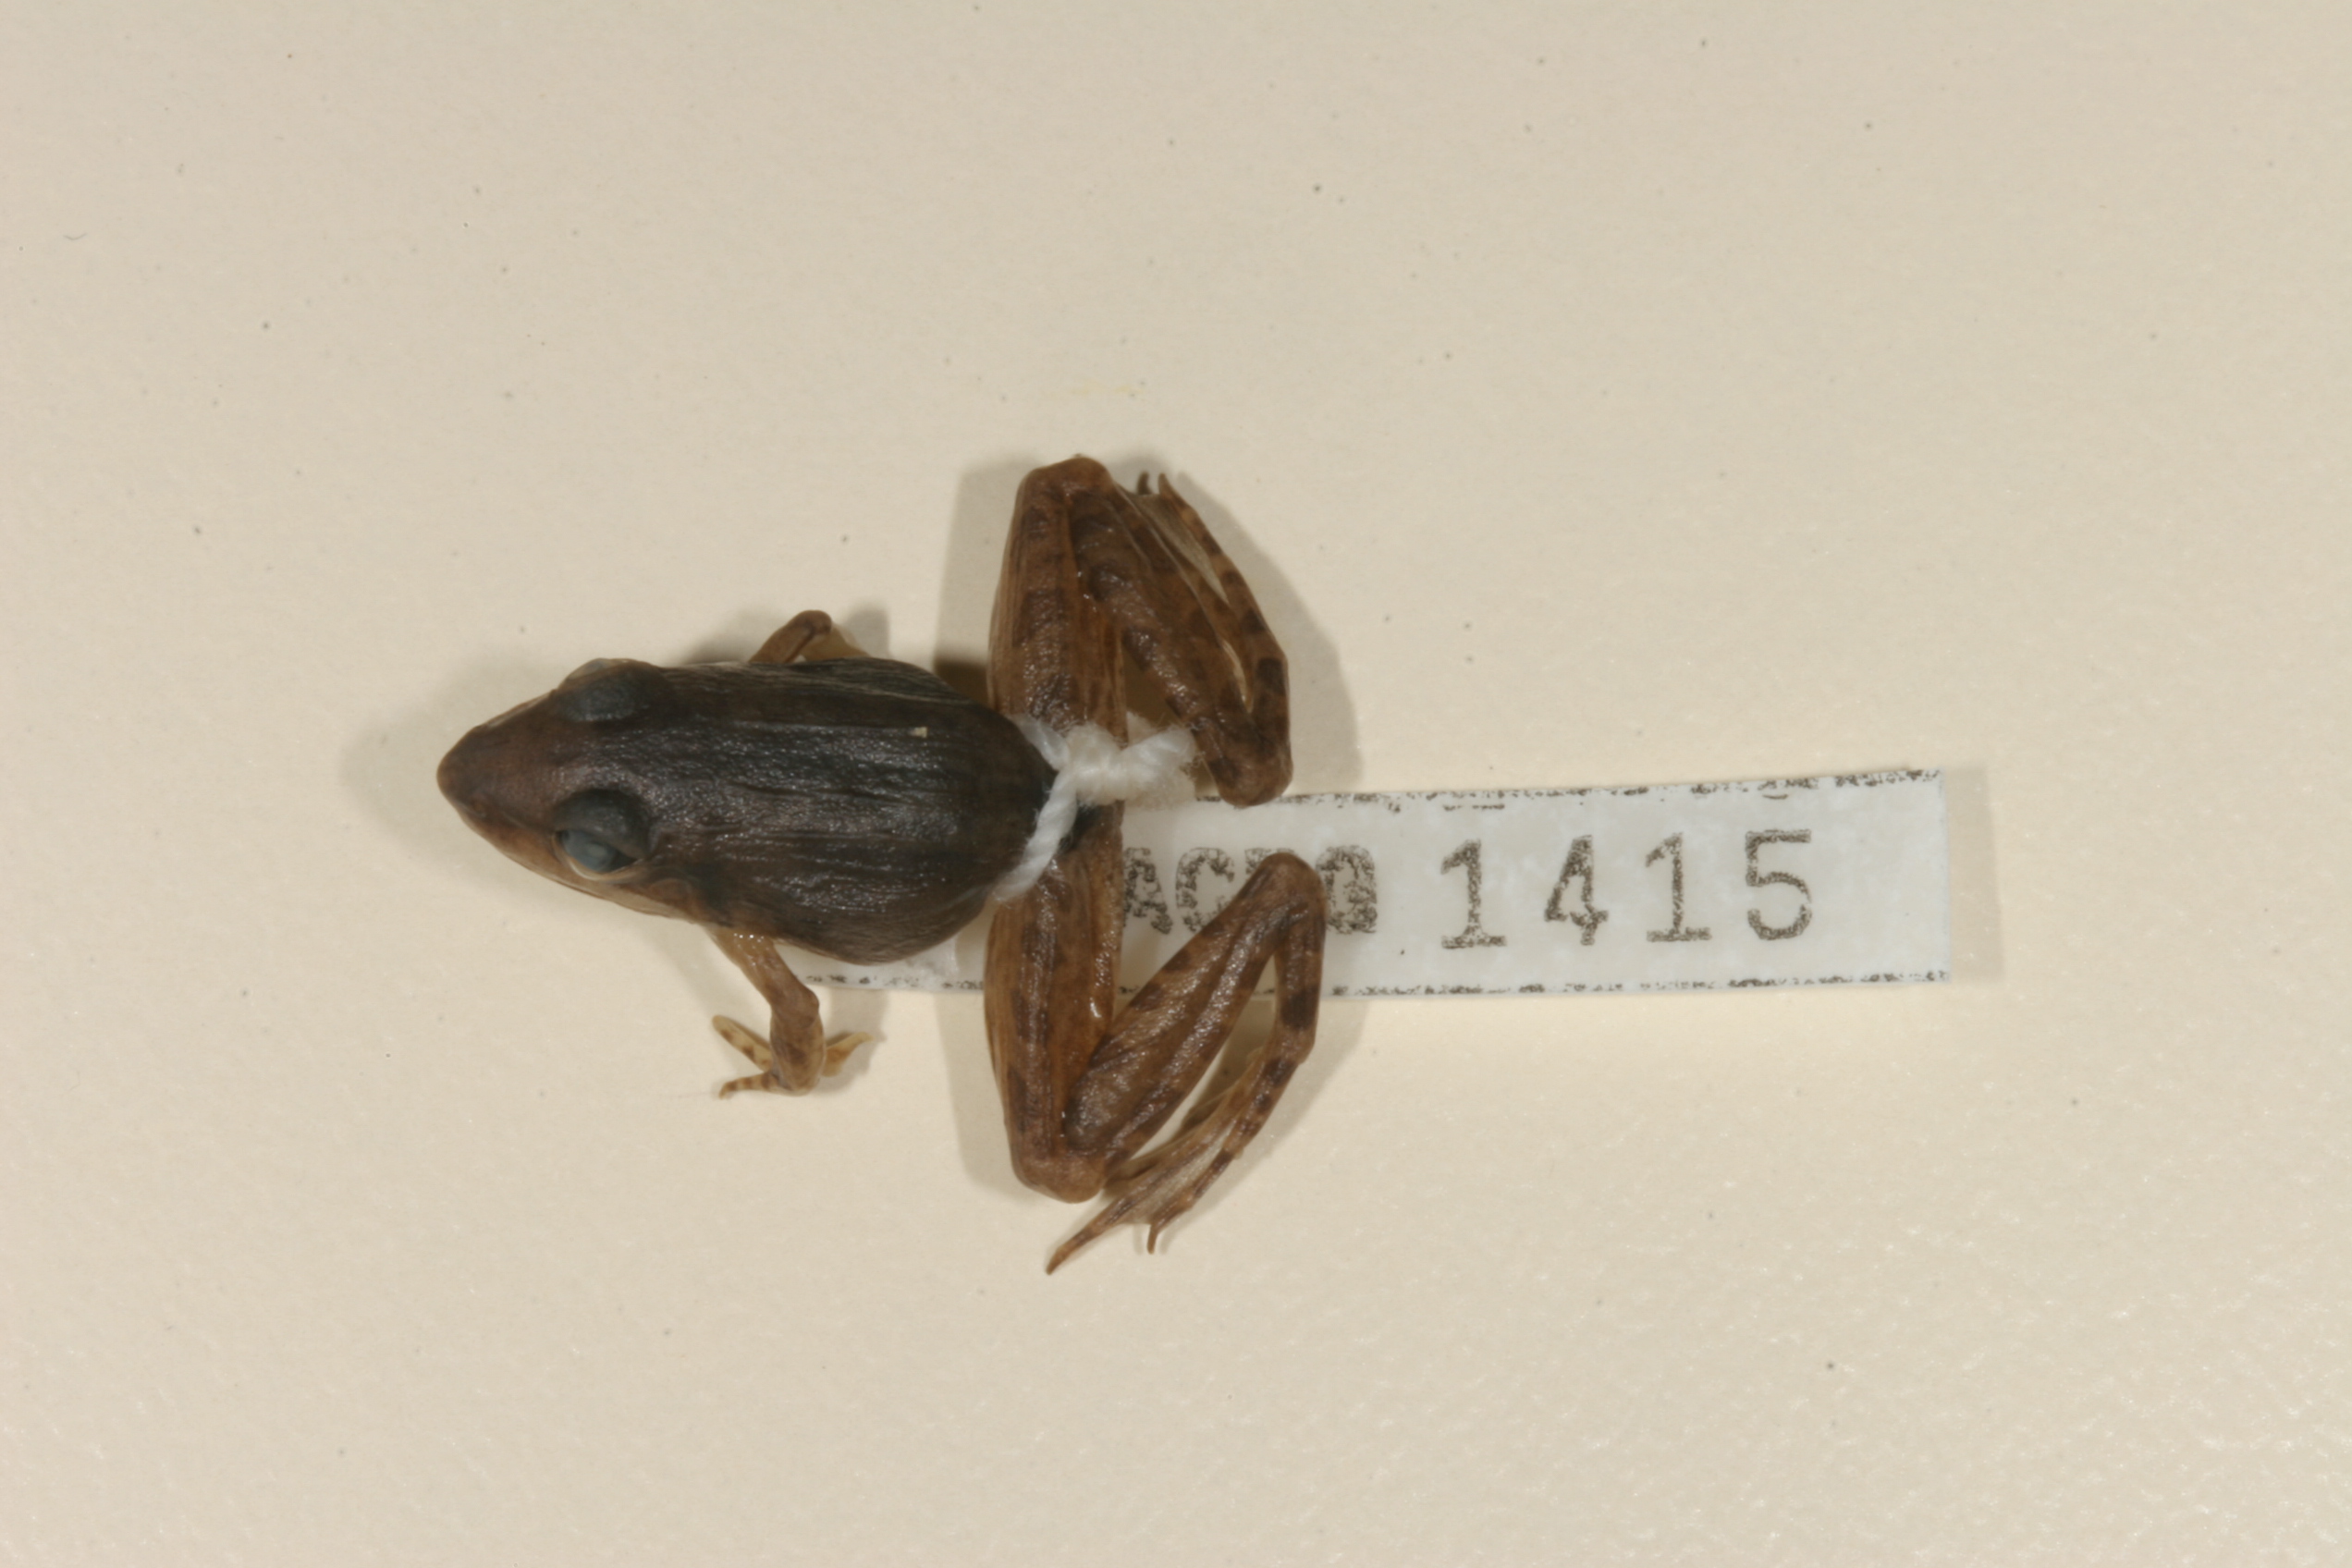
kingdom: Animalia
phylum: Chordata
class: Amphibia
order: Anura
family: Ptychadenidae
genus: Ptychadena
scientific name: Ptychadena anchietae
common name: Anchieta's ridged frog
